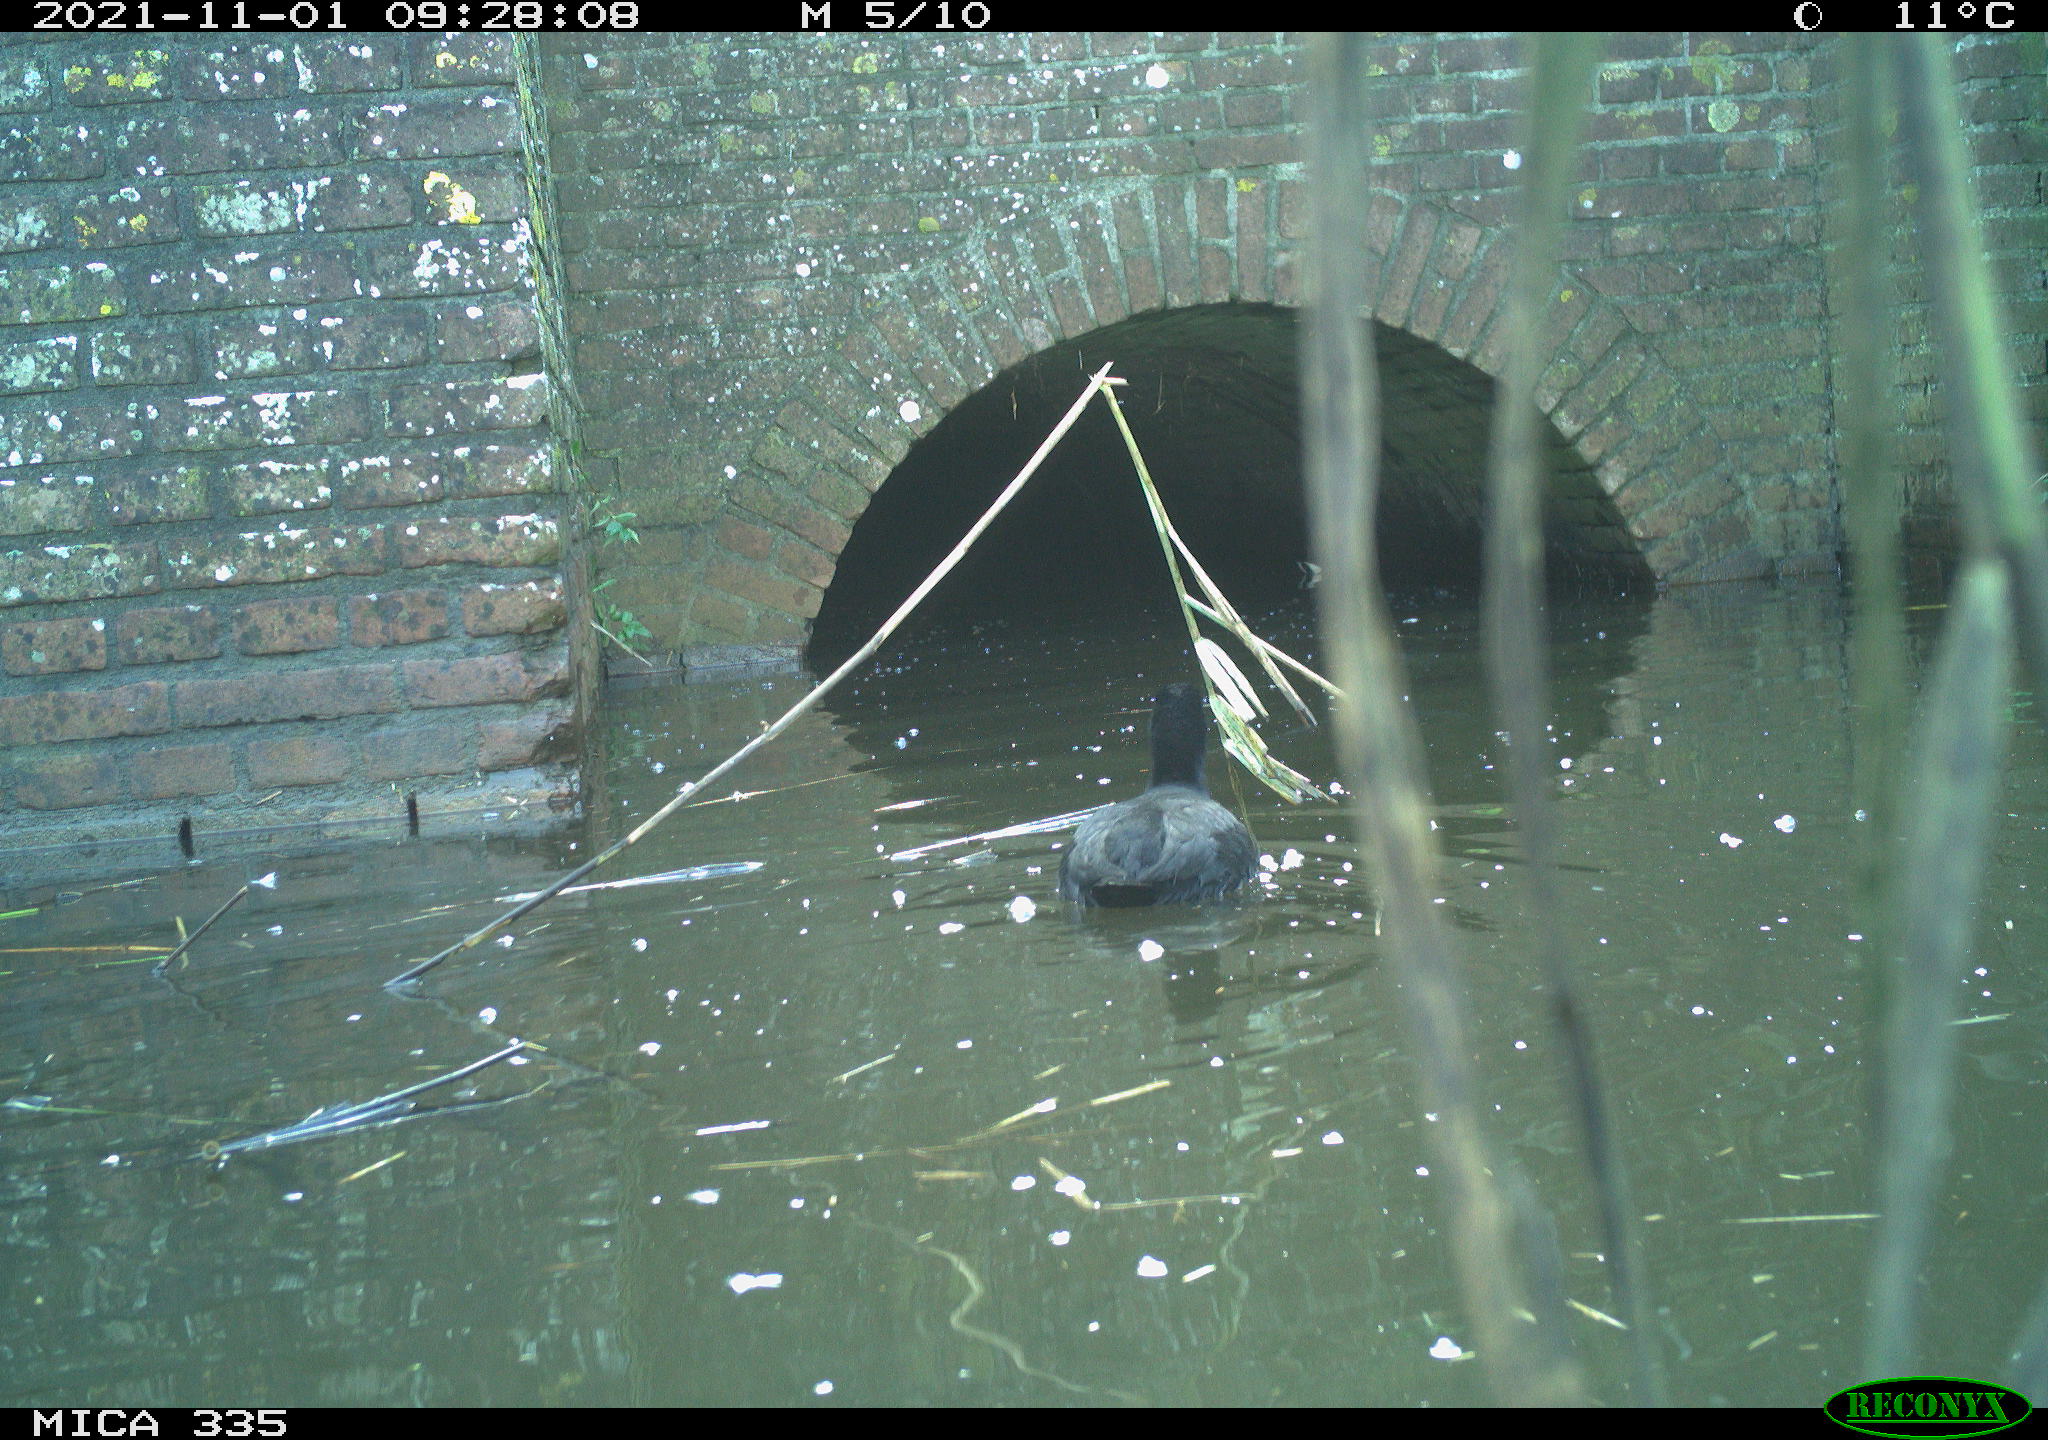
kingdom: Animalia
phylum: Chordata
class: Aves
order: Gruiformes
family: Rallidae
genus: Fulica
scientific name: Fulica atra
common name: Eurasian coot
